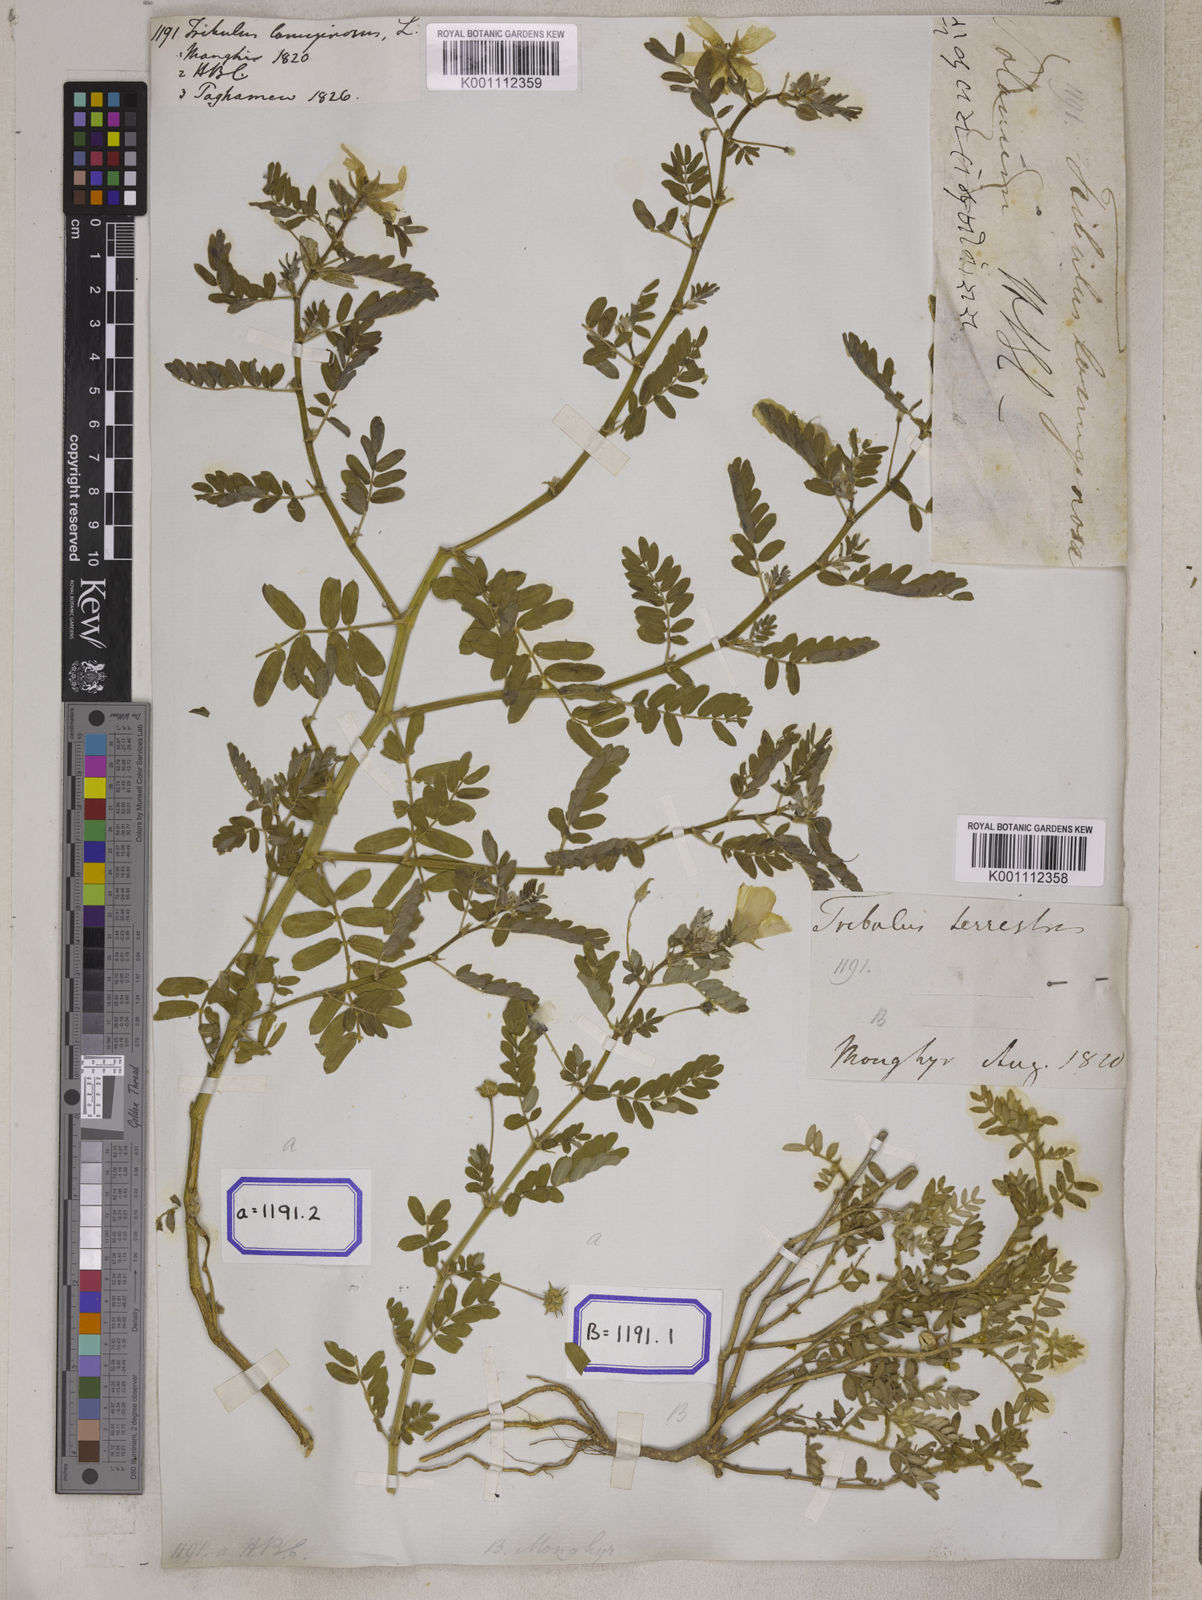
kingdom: Plantae
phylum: Tracheophyta
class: Magnoliopsida
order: Zygophyllales
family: Zygophyllaceae
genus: Tribulus
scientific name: Tribulus terrestris
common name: Puncturevine
